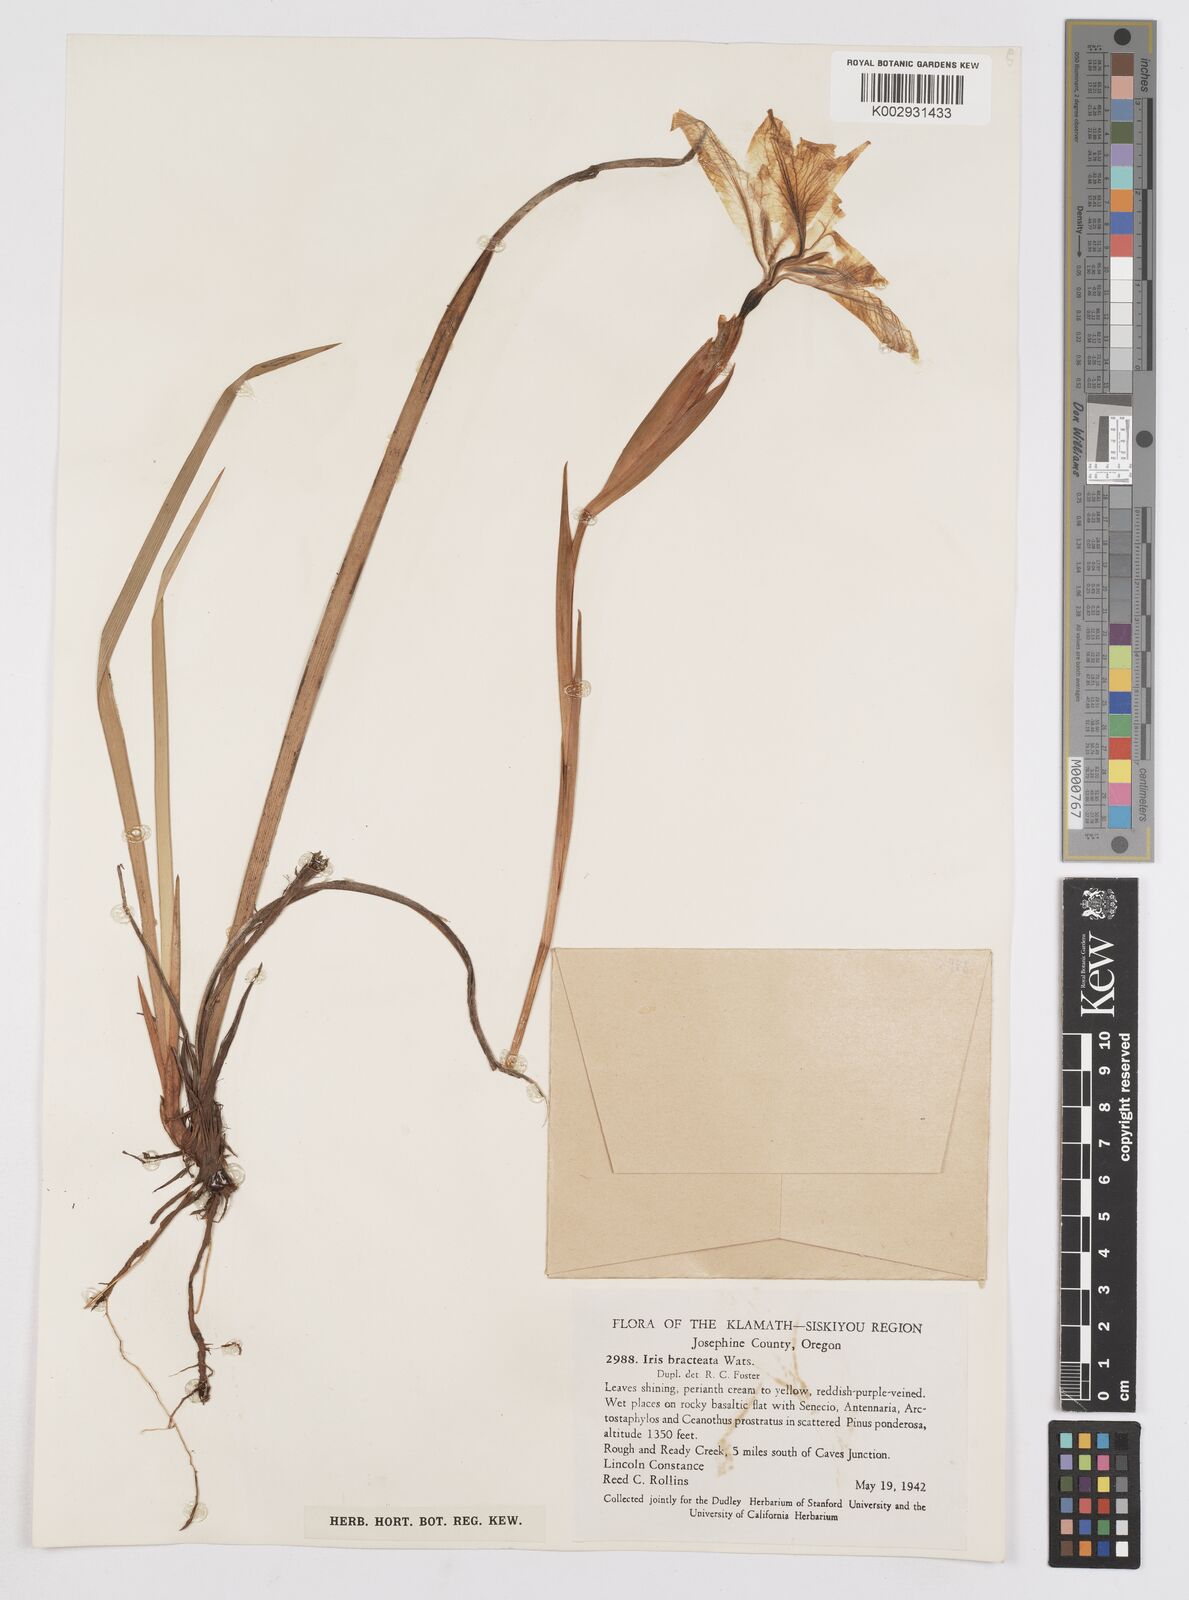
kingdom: Plantae
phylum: Tracheophyta
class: Liliopsida
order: Asparagales
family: Iridaceae
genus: Iris
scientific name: Iris bracteata
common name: Siskiyou iris
